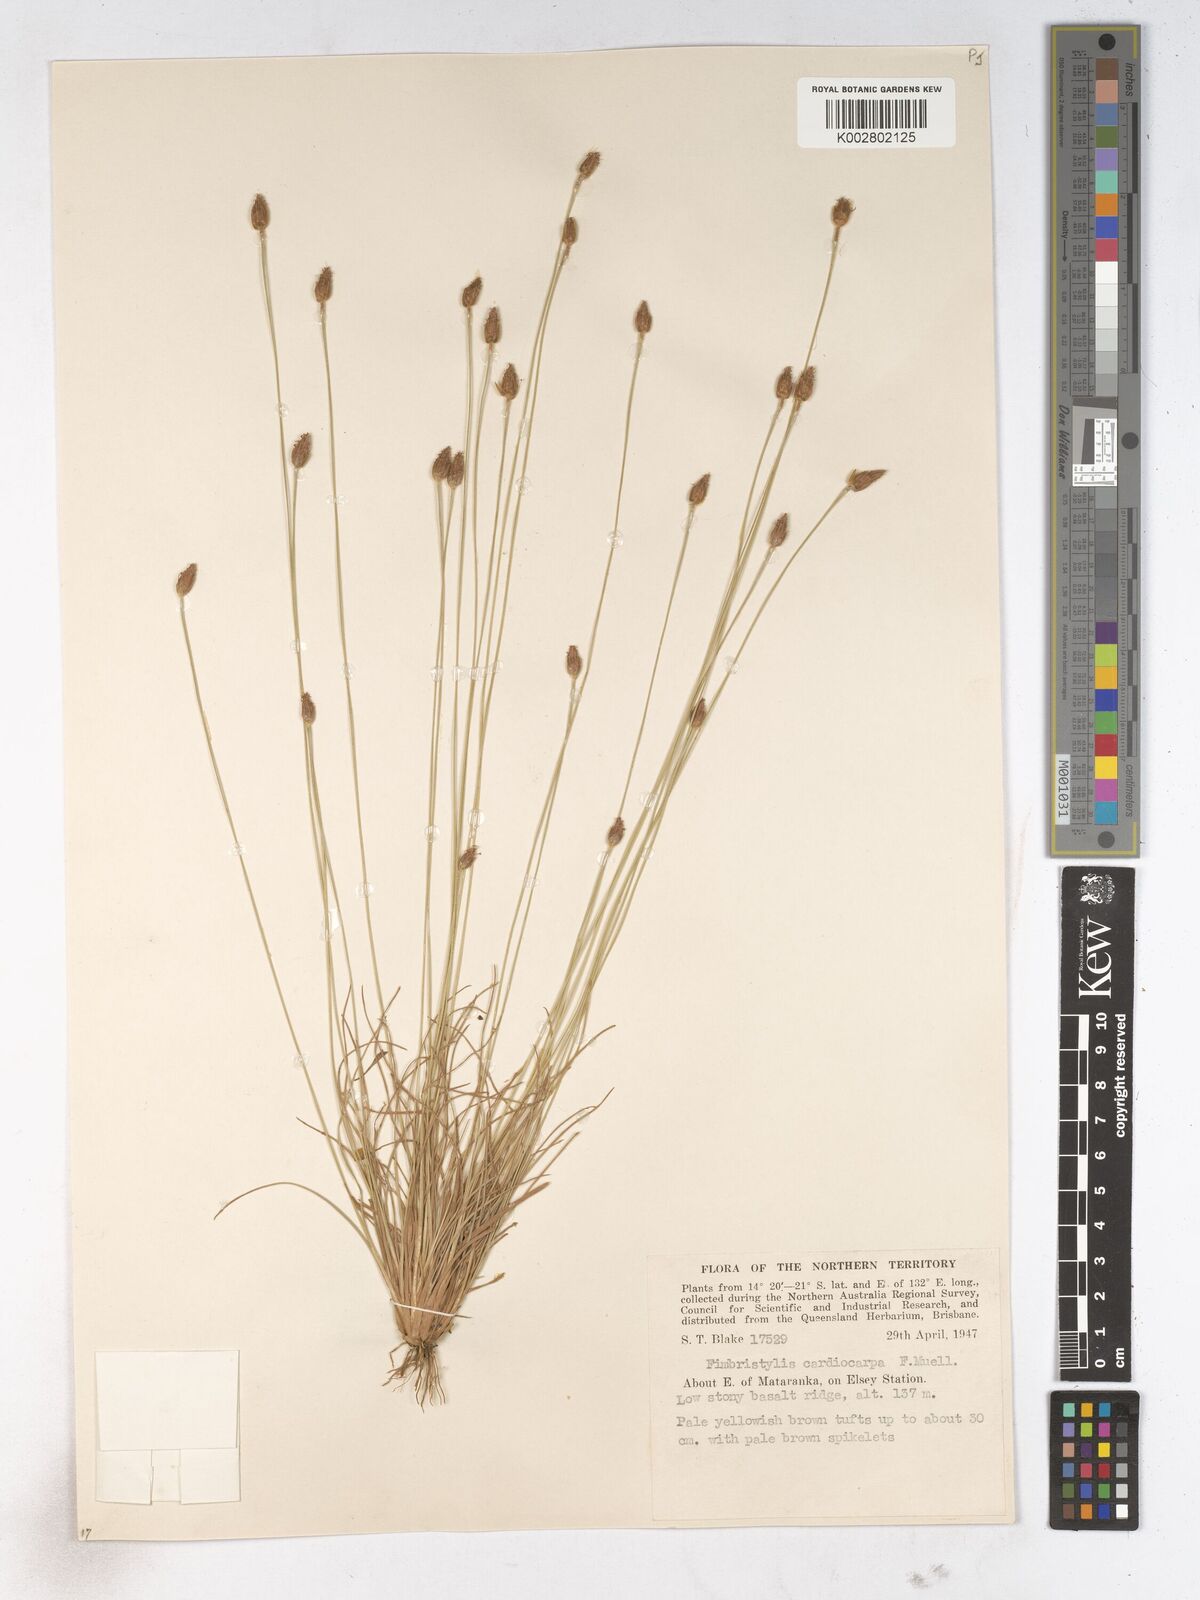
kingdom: Plantae
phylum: Tracheophyta
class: Liliopsida
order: Poales
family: Cyperaceae
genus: Fimbristylis
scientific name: Fimbristylis cardiocarpa
